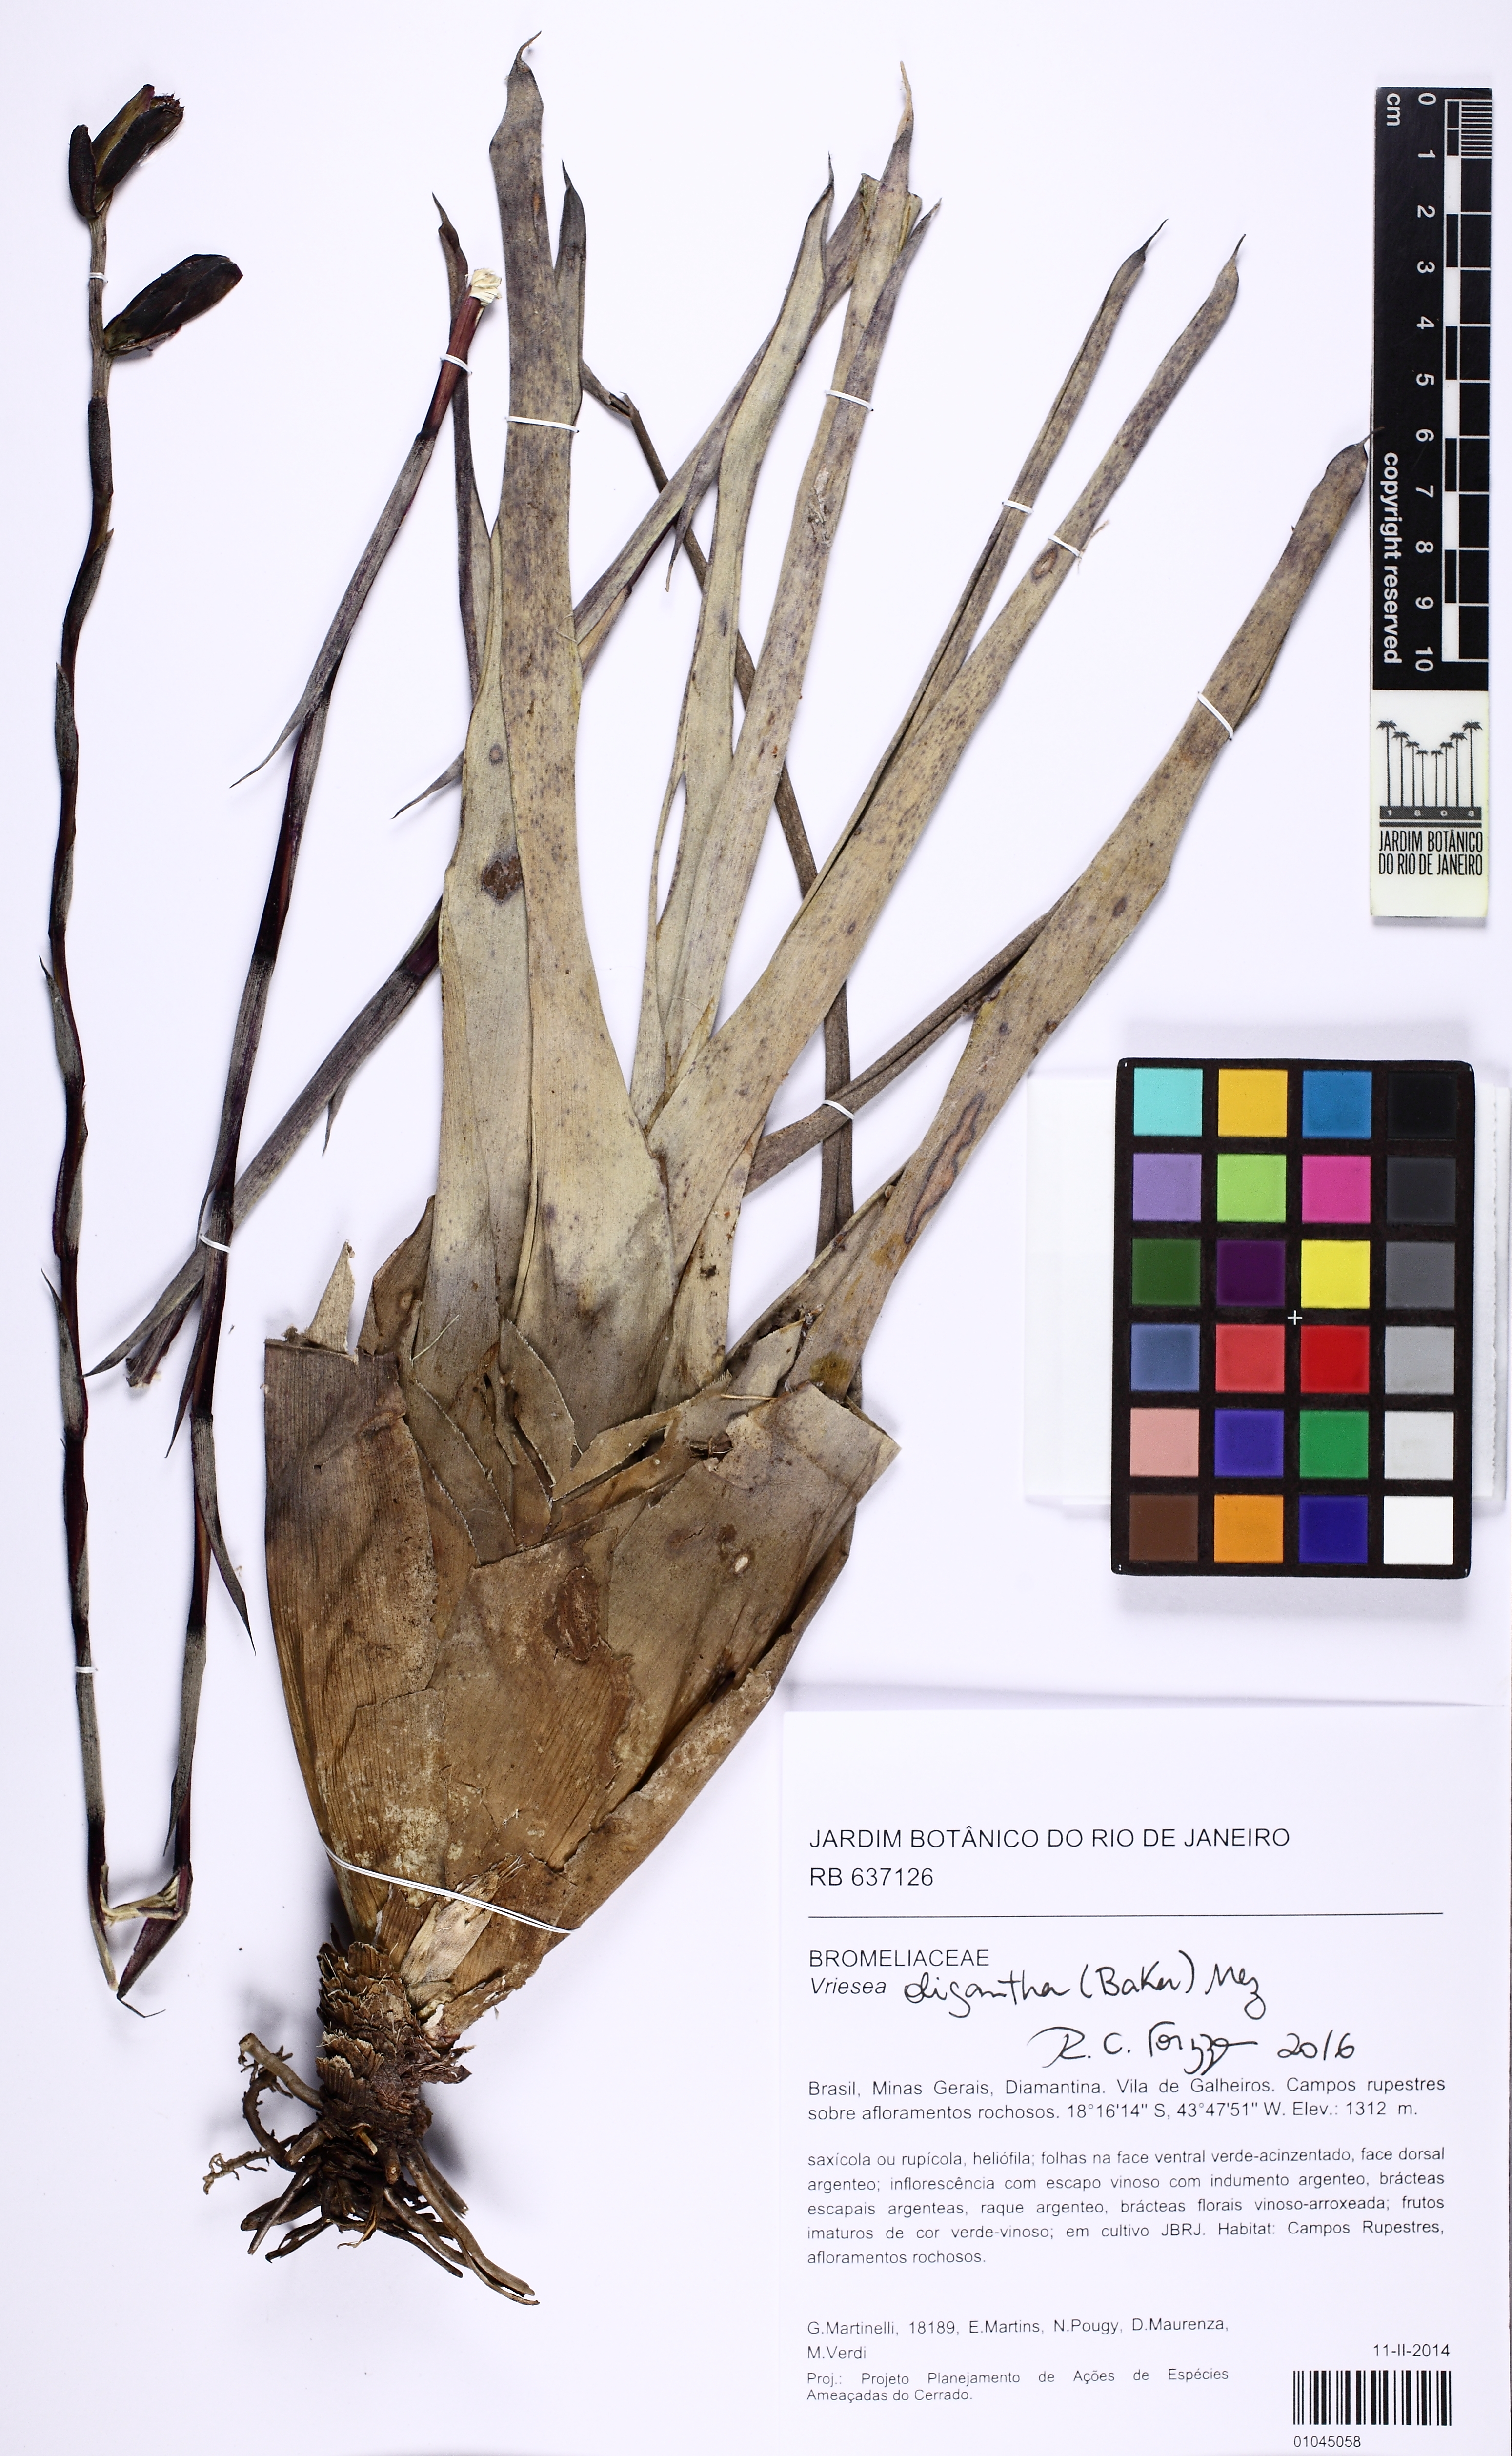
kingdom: Plantae
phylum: Tracheophyta
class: Liliopsida
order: Poales
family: Bromeliaceae
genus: Vriesea
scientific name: Vriesea oligantha
